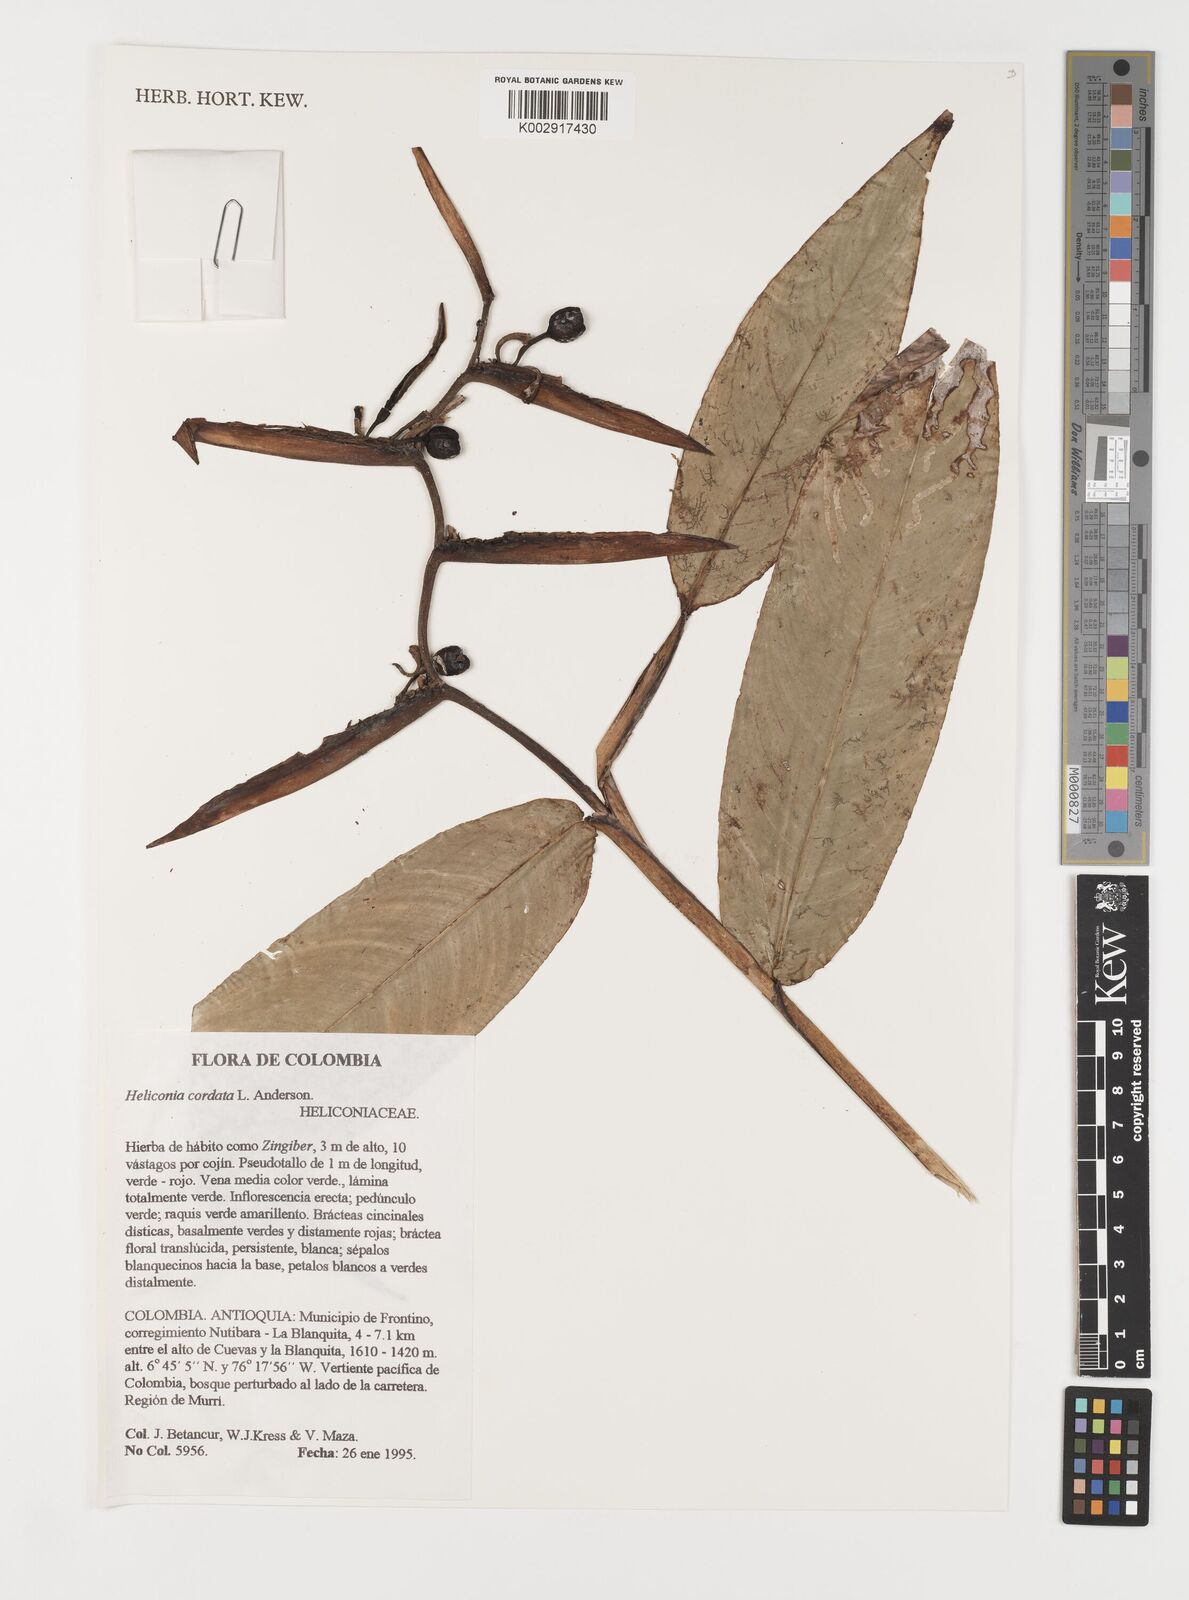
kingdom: Plantae
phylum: Tracheophyta
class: Liliopsida
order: Zingiberales
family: Heliconiaceae
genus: Heliconia
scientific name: Heliconia cordata
